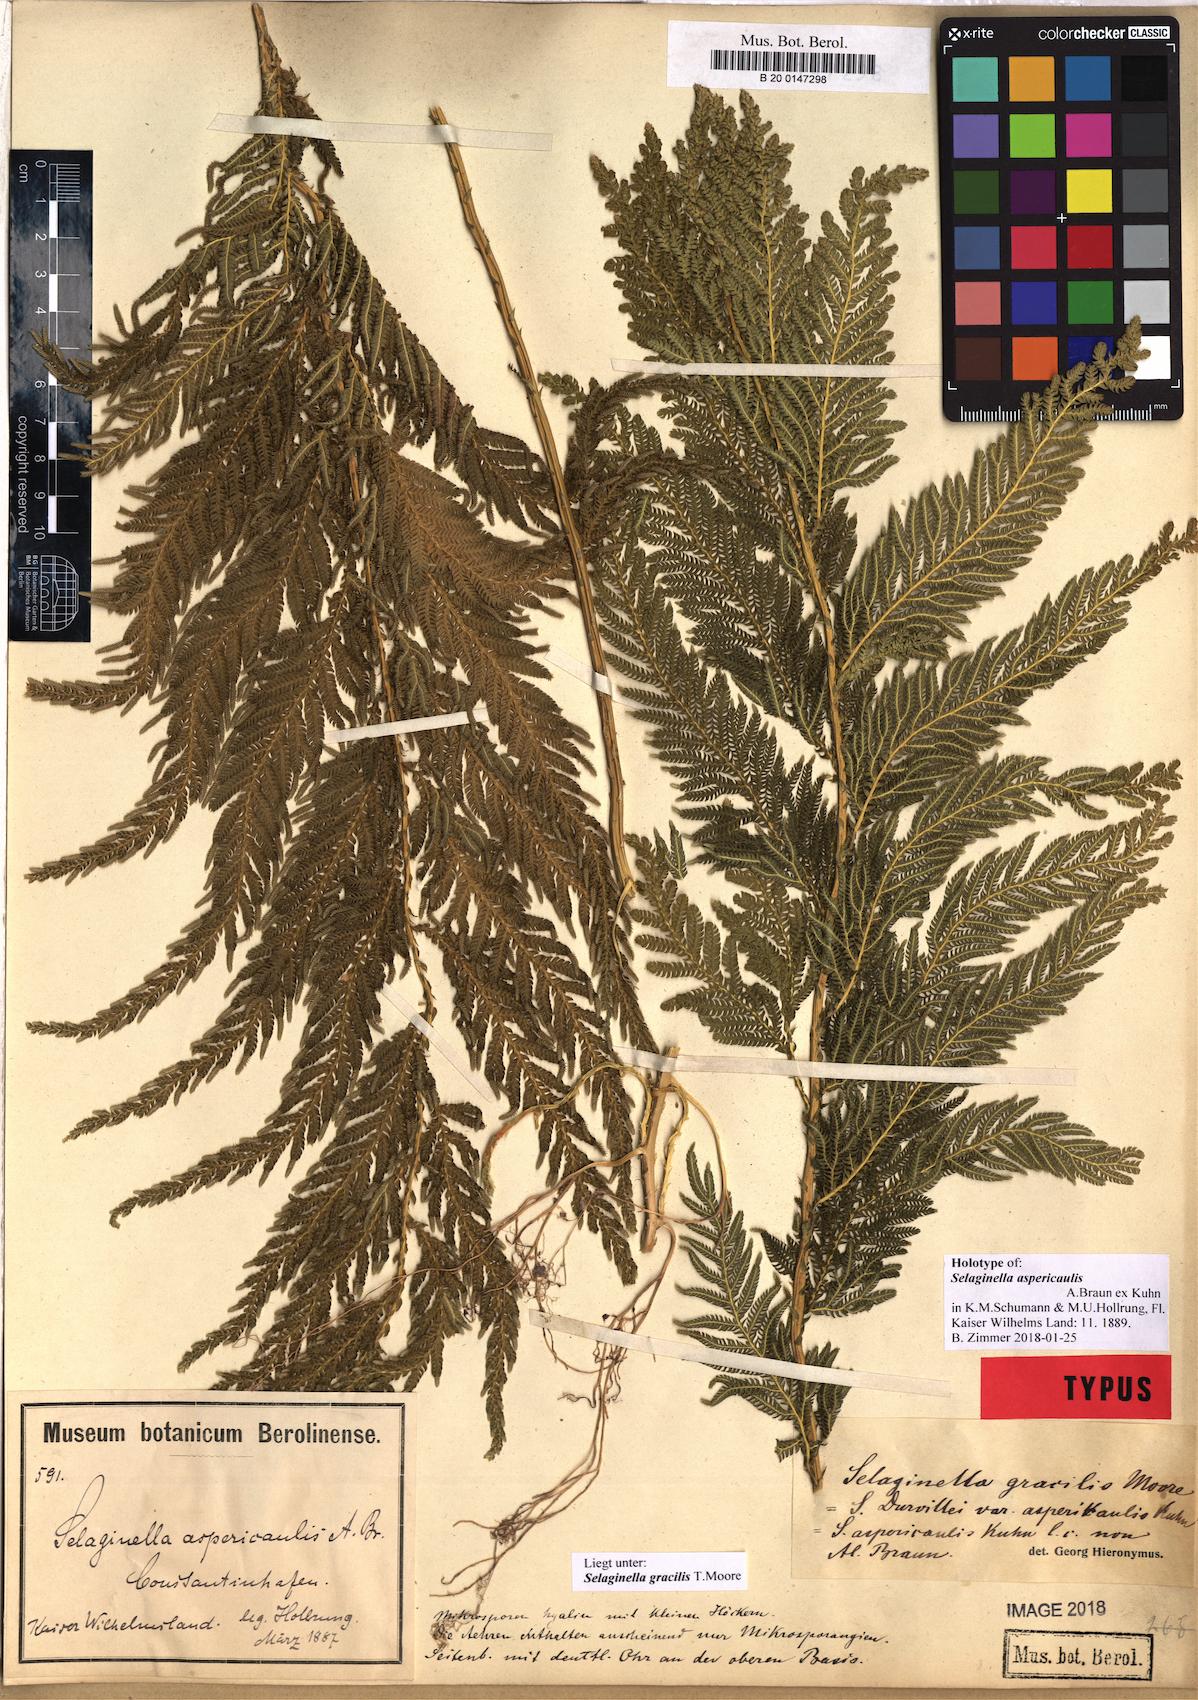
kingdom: Plantae
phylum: Tracheophyta
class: Lycopodiopsida
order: Selaginellales
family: Selaginellaceae
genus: Selaginella
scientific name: Selaginella gracilis
